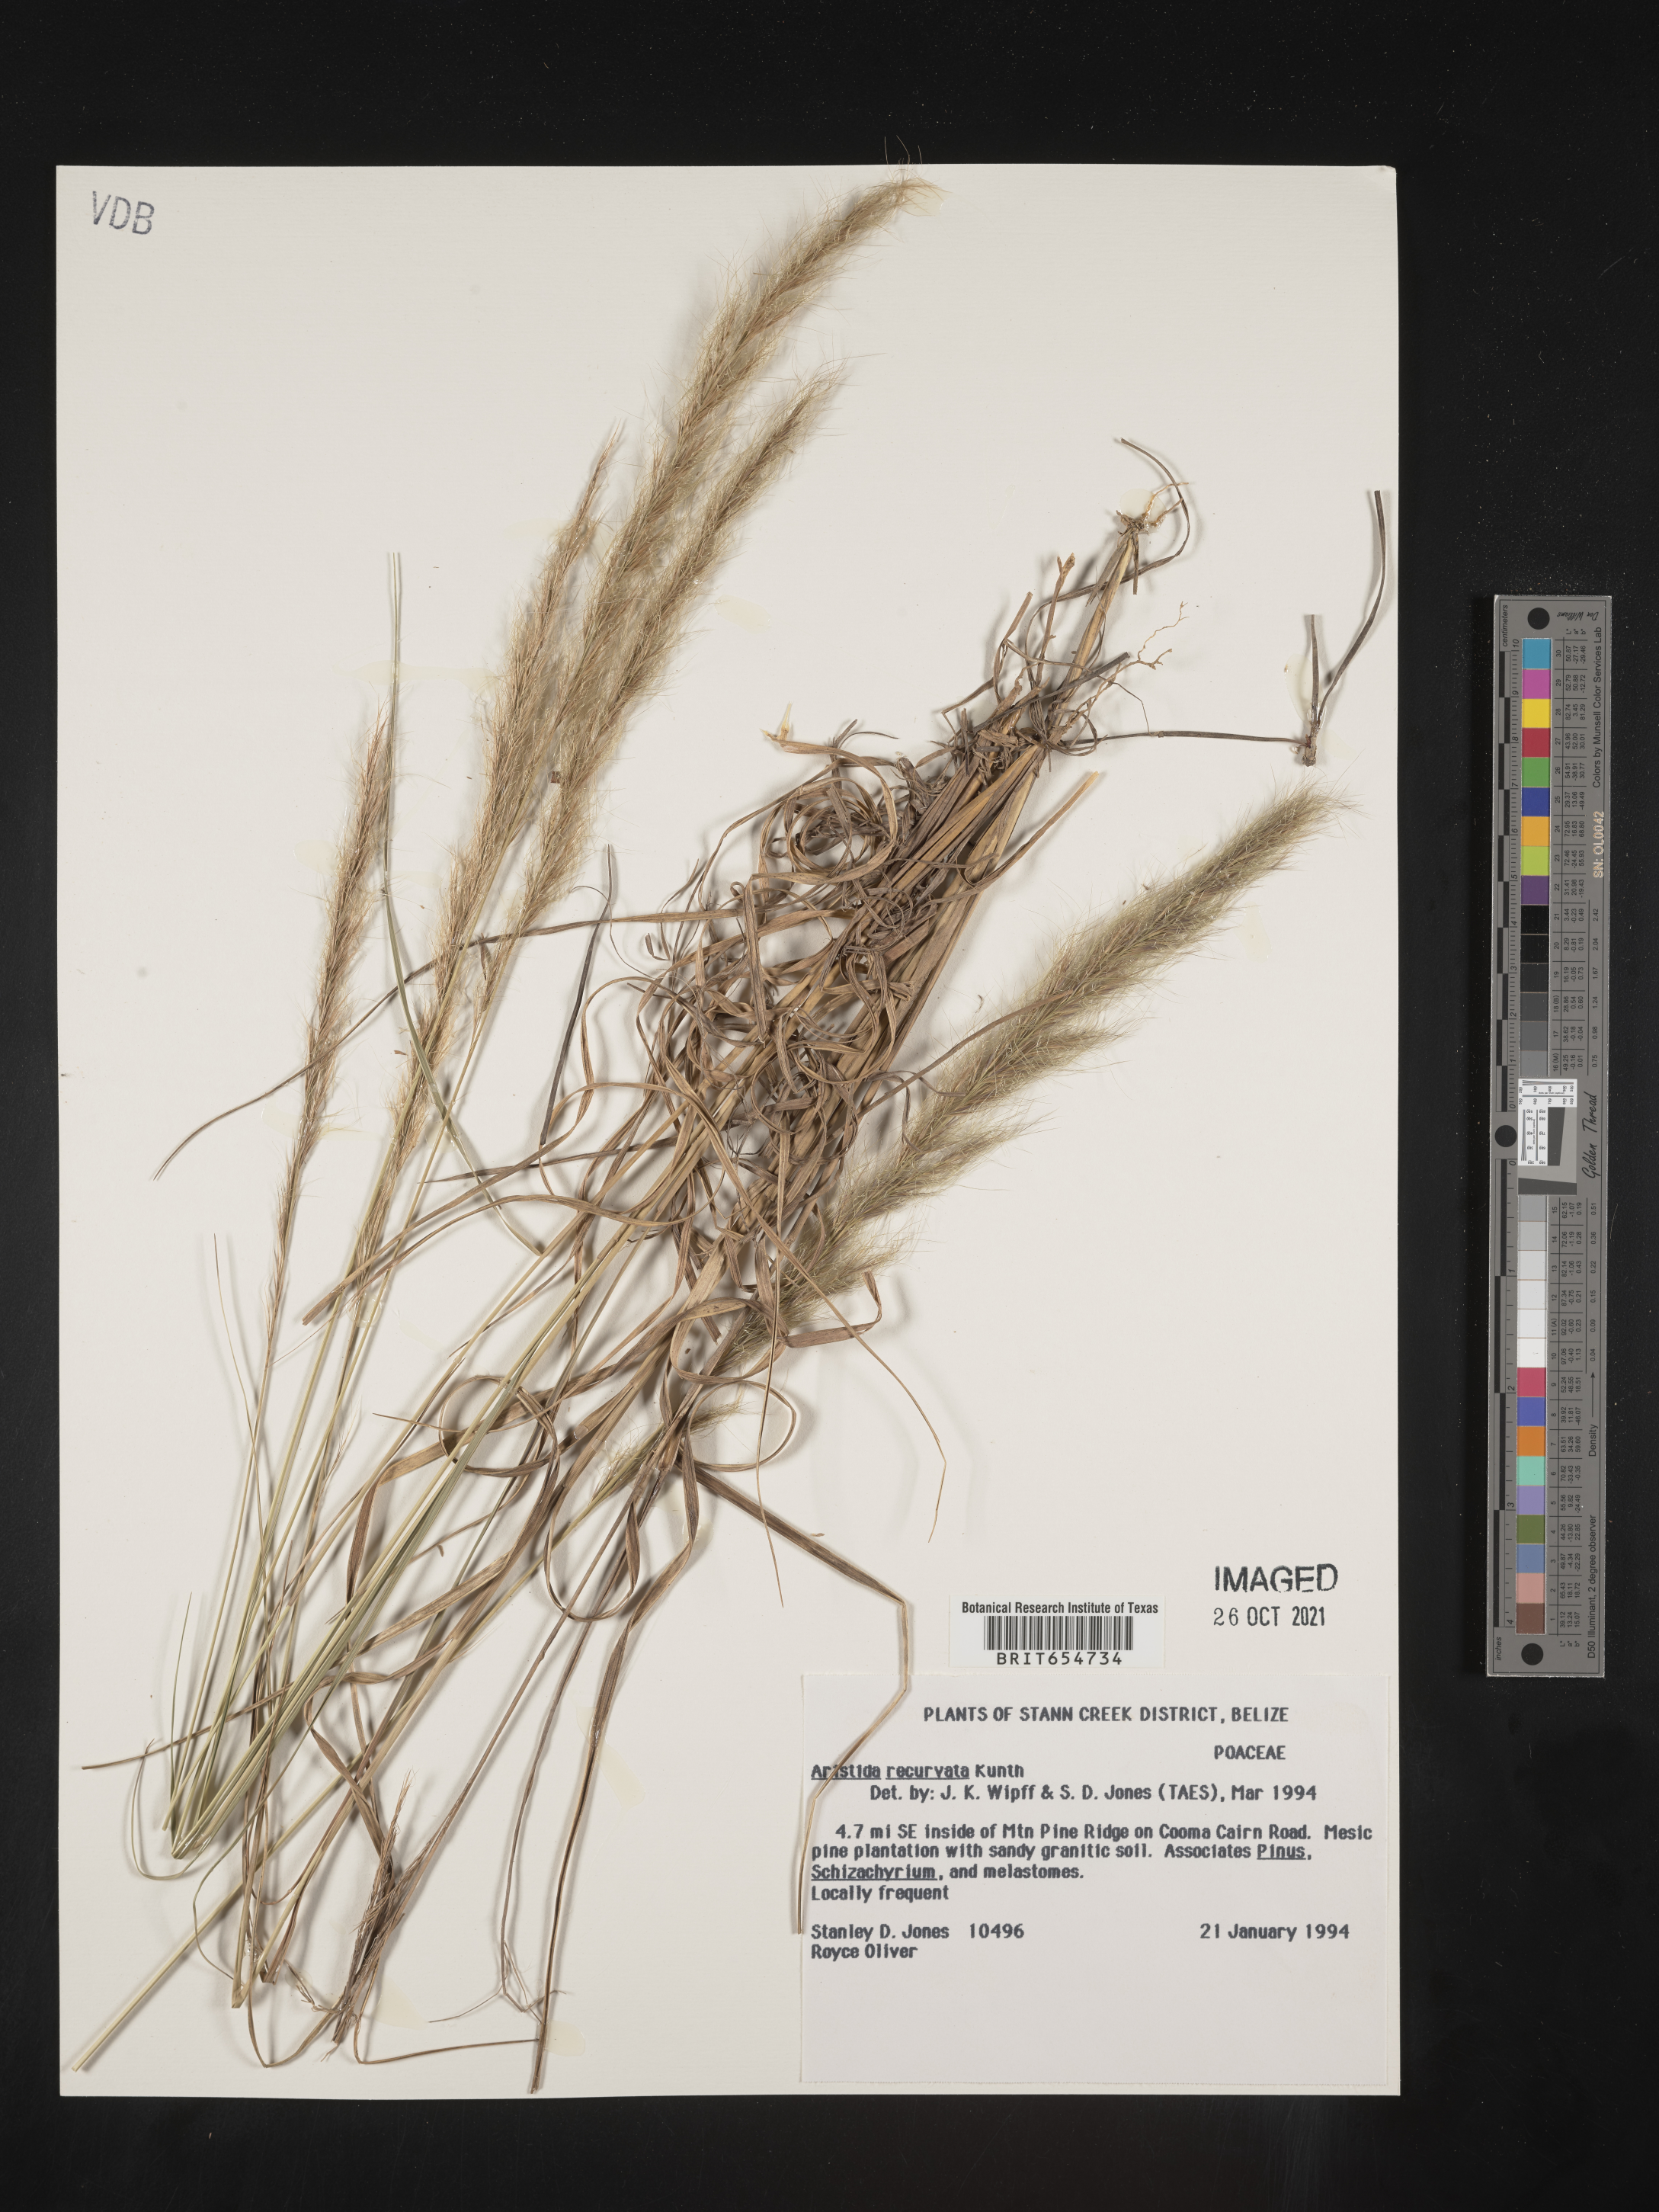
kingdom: Plantae
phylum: Tracheophyta
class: Liliopsida
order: Poales
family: Poaceae
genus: Aristida
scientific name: Aristida
